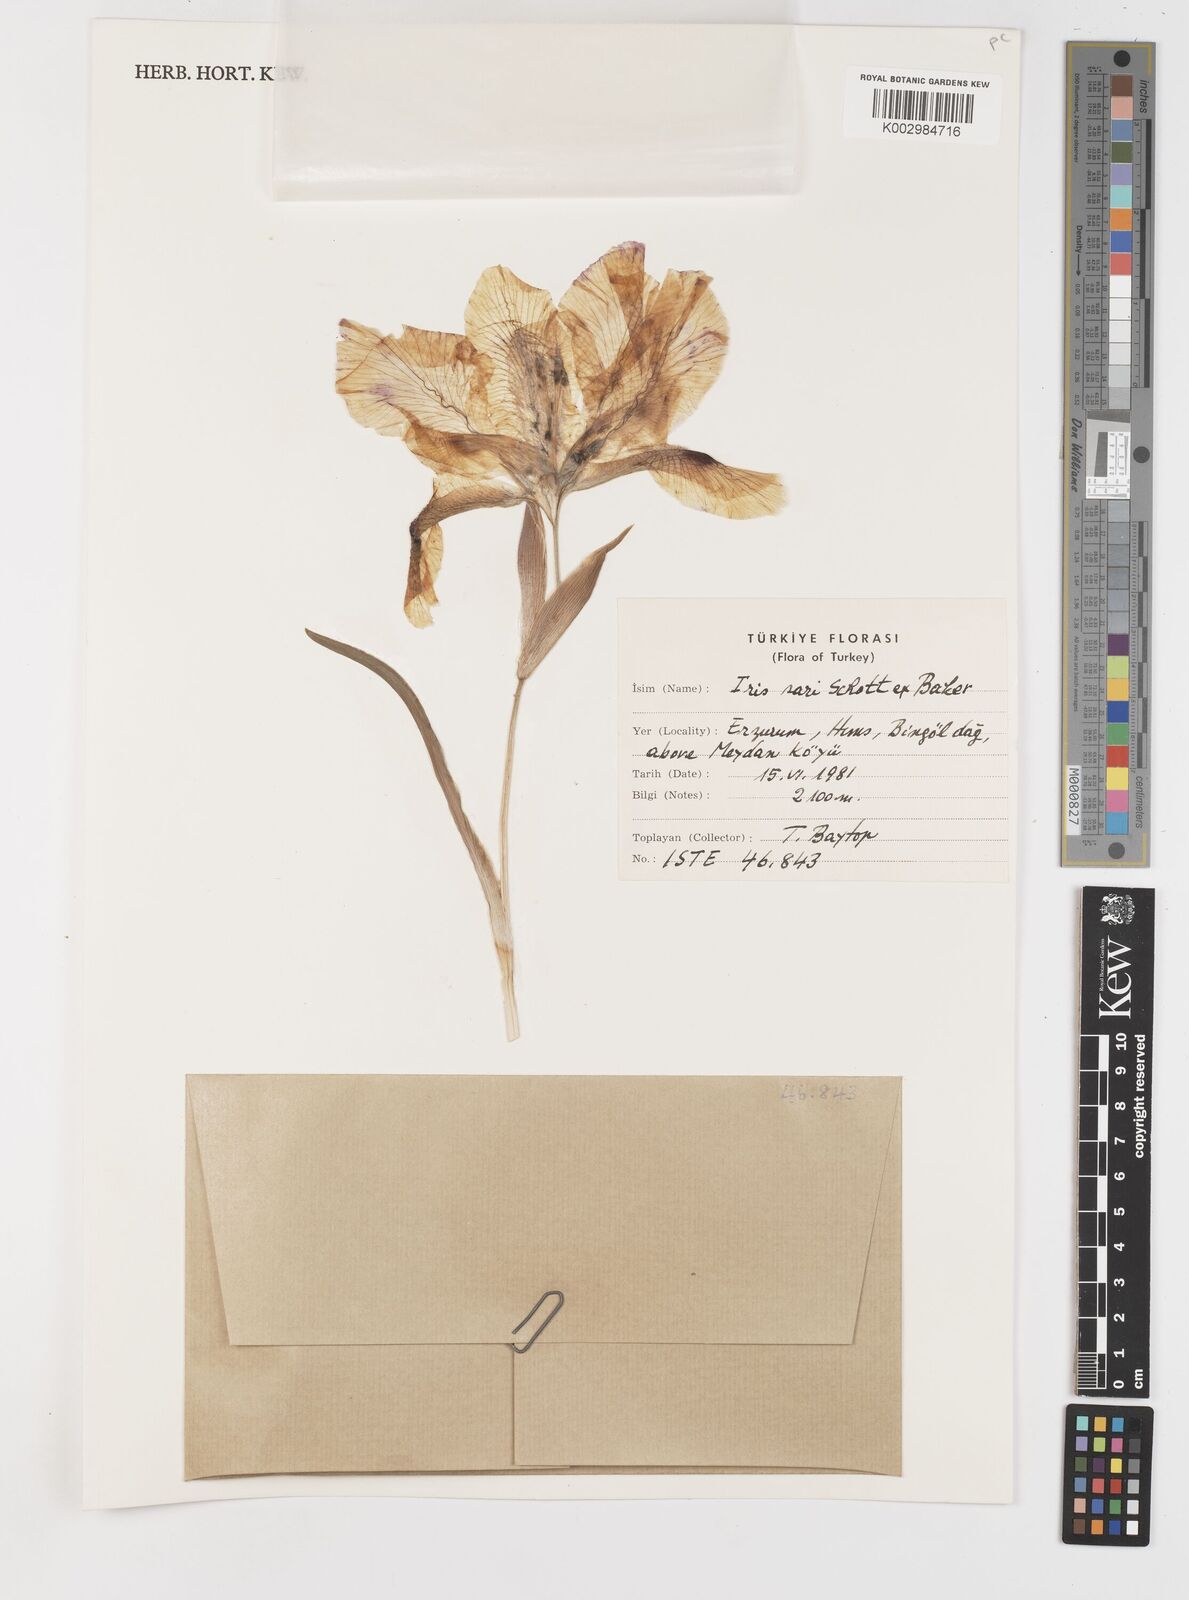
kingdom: Plantae
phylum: Tracheophyta
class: Liliopsida
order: Asparagales
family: Iridaceae
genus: Iris
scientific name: Iris sari
